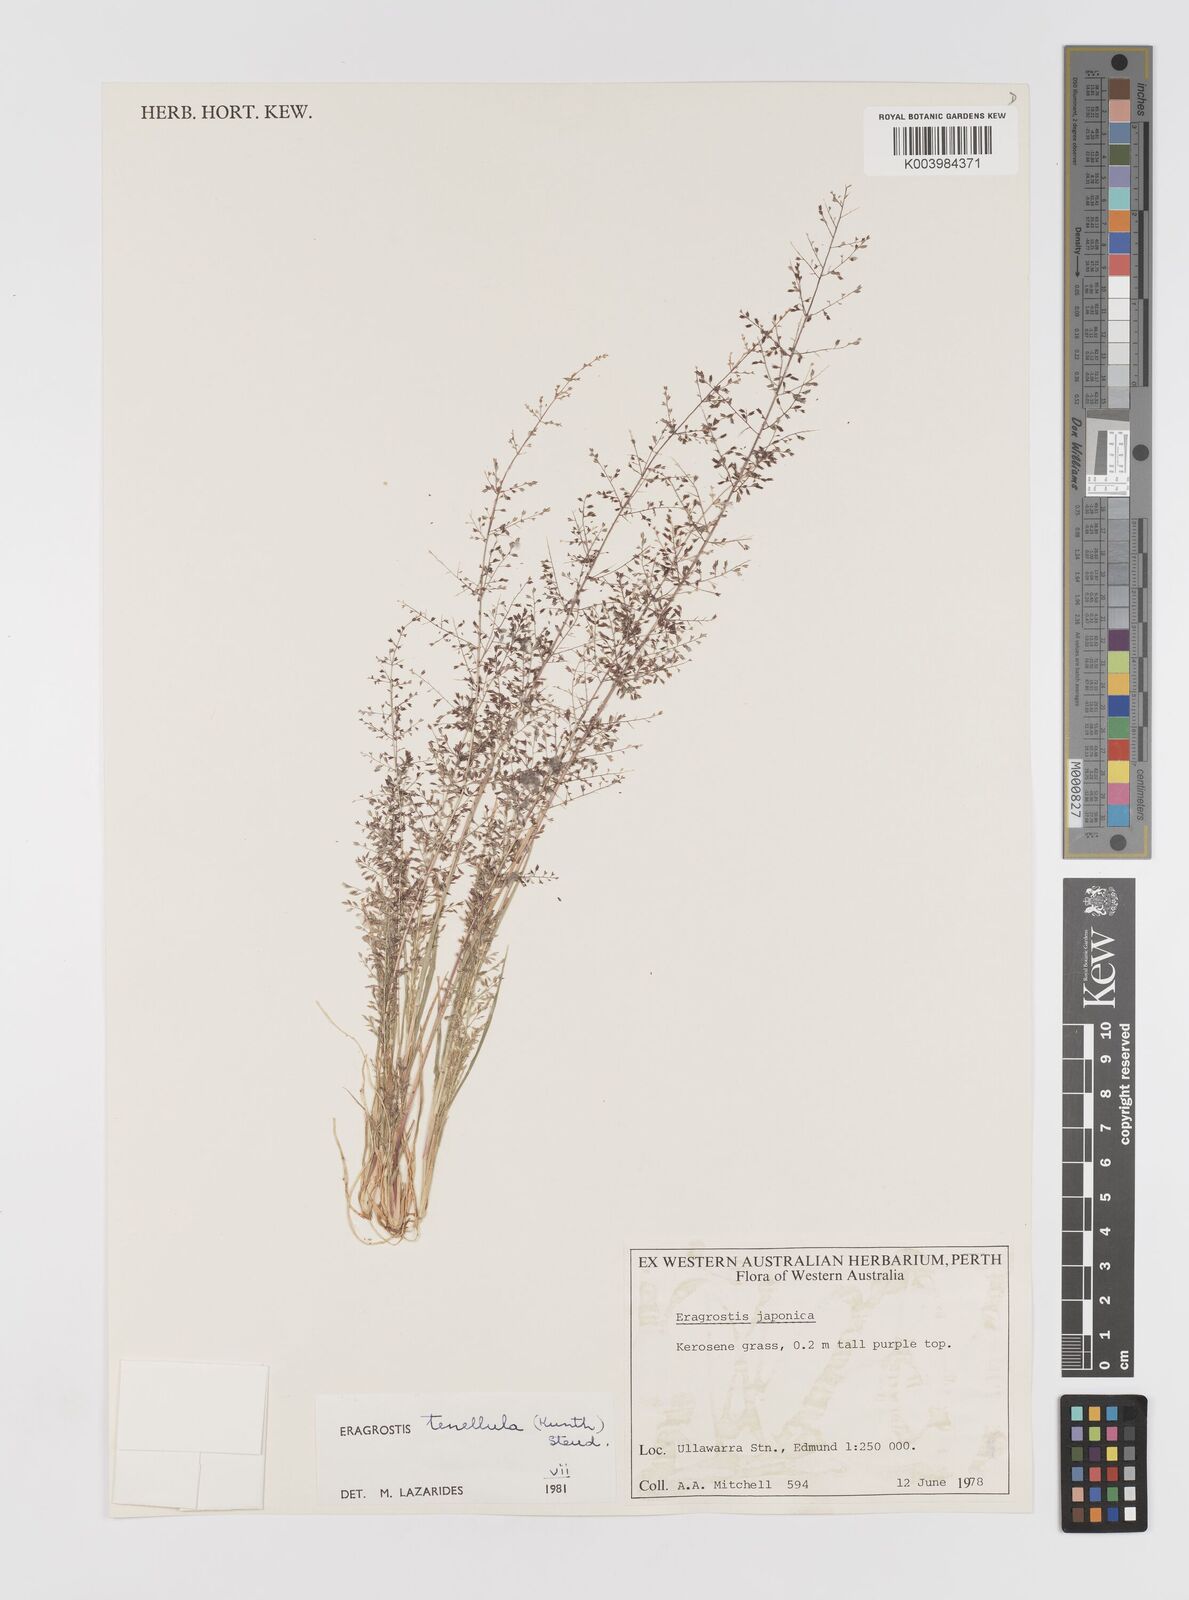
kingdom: Plantae
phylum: Tracheophyta
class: Liliopsida
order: Poales
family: Poaceae
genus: Eragrostis
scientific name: Eragrostis tenellula
